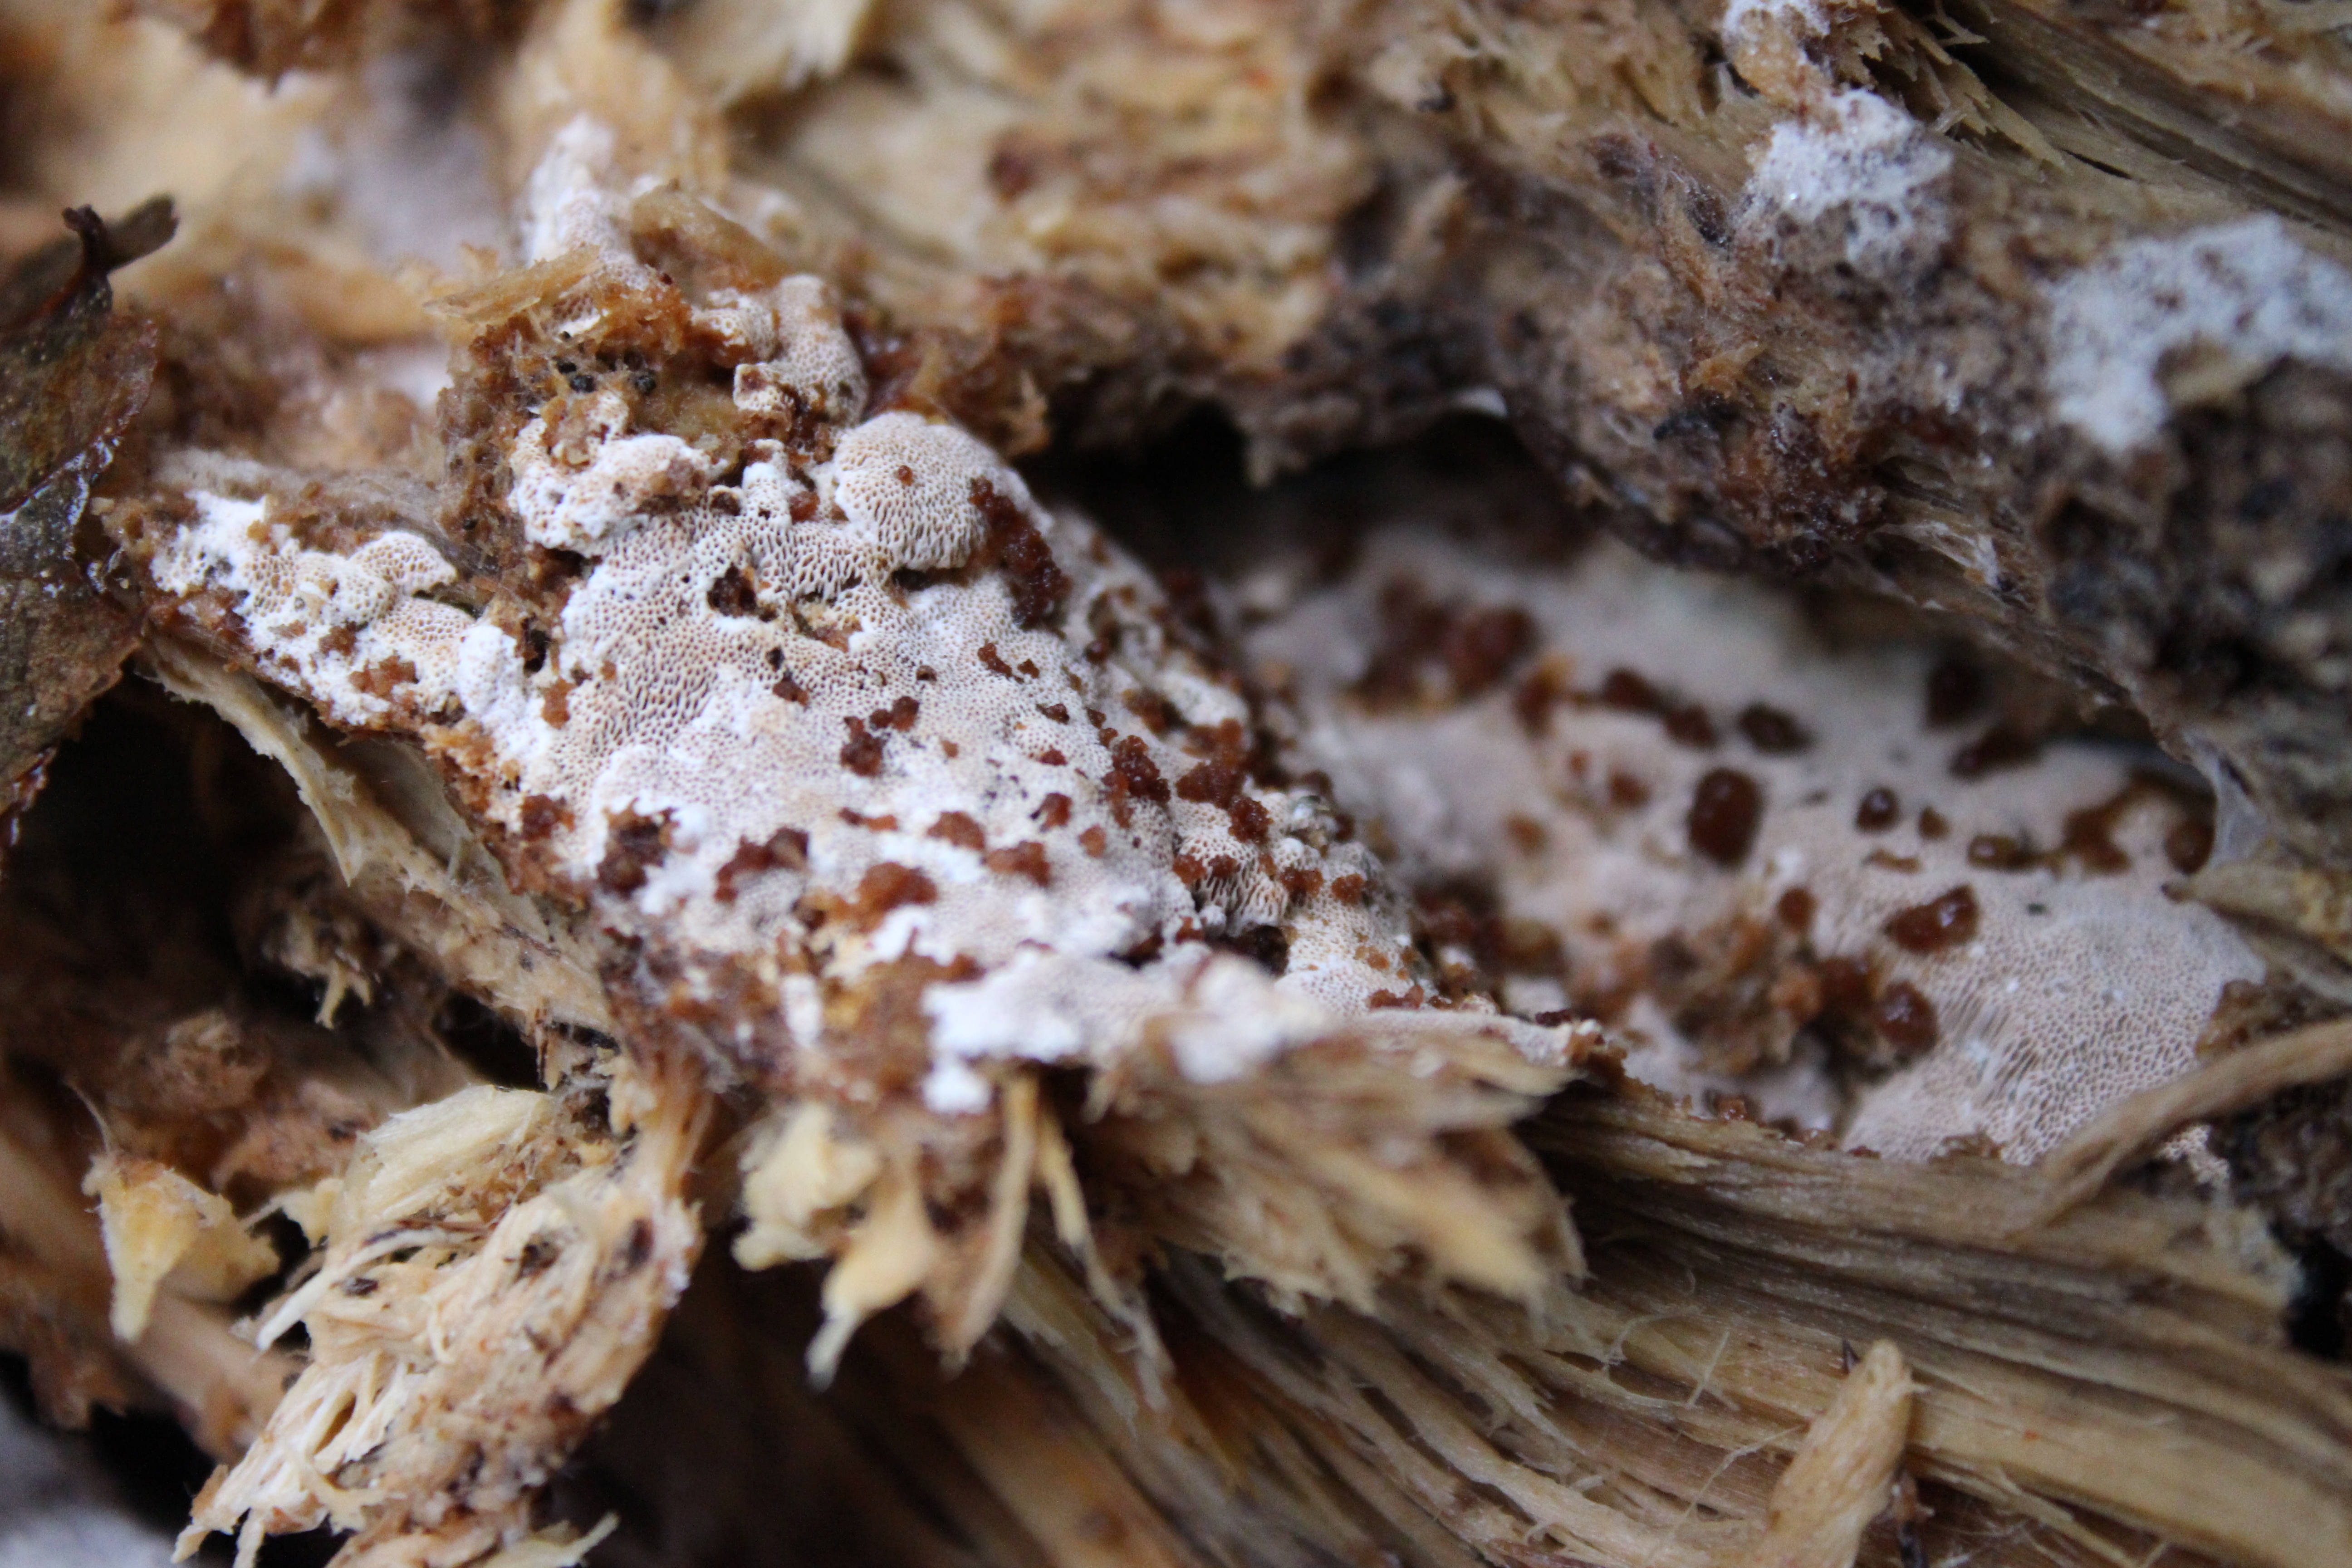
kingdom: Fungi
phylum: Basidiomycota
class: Agaricomycetes
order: Auriculariales
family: Auriculariaceae
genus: Elmerina
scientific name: Elmerina caryae
